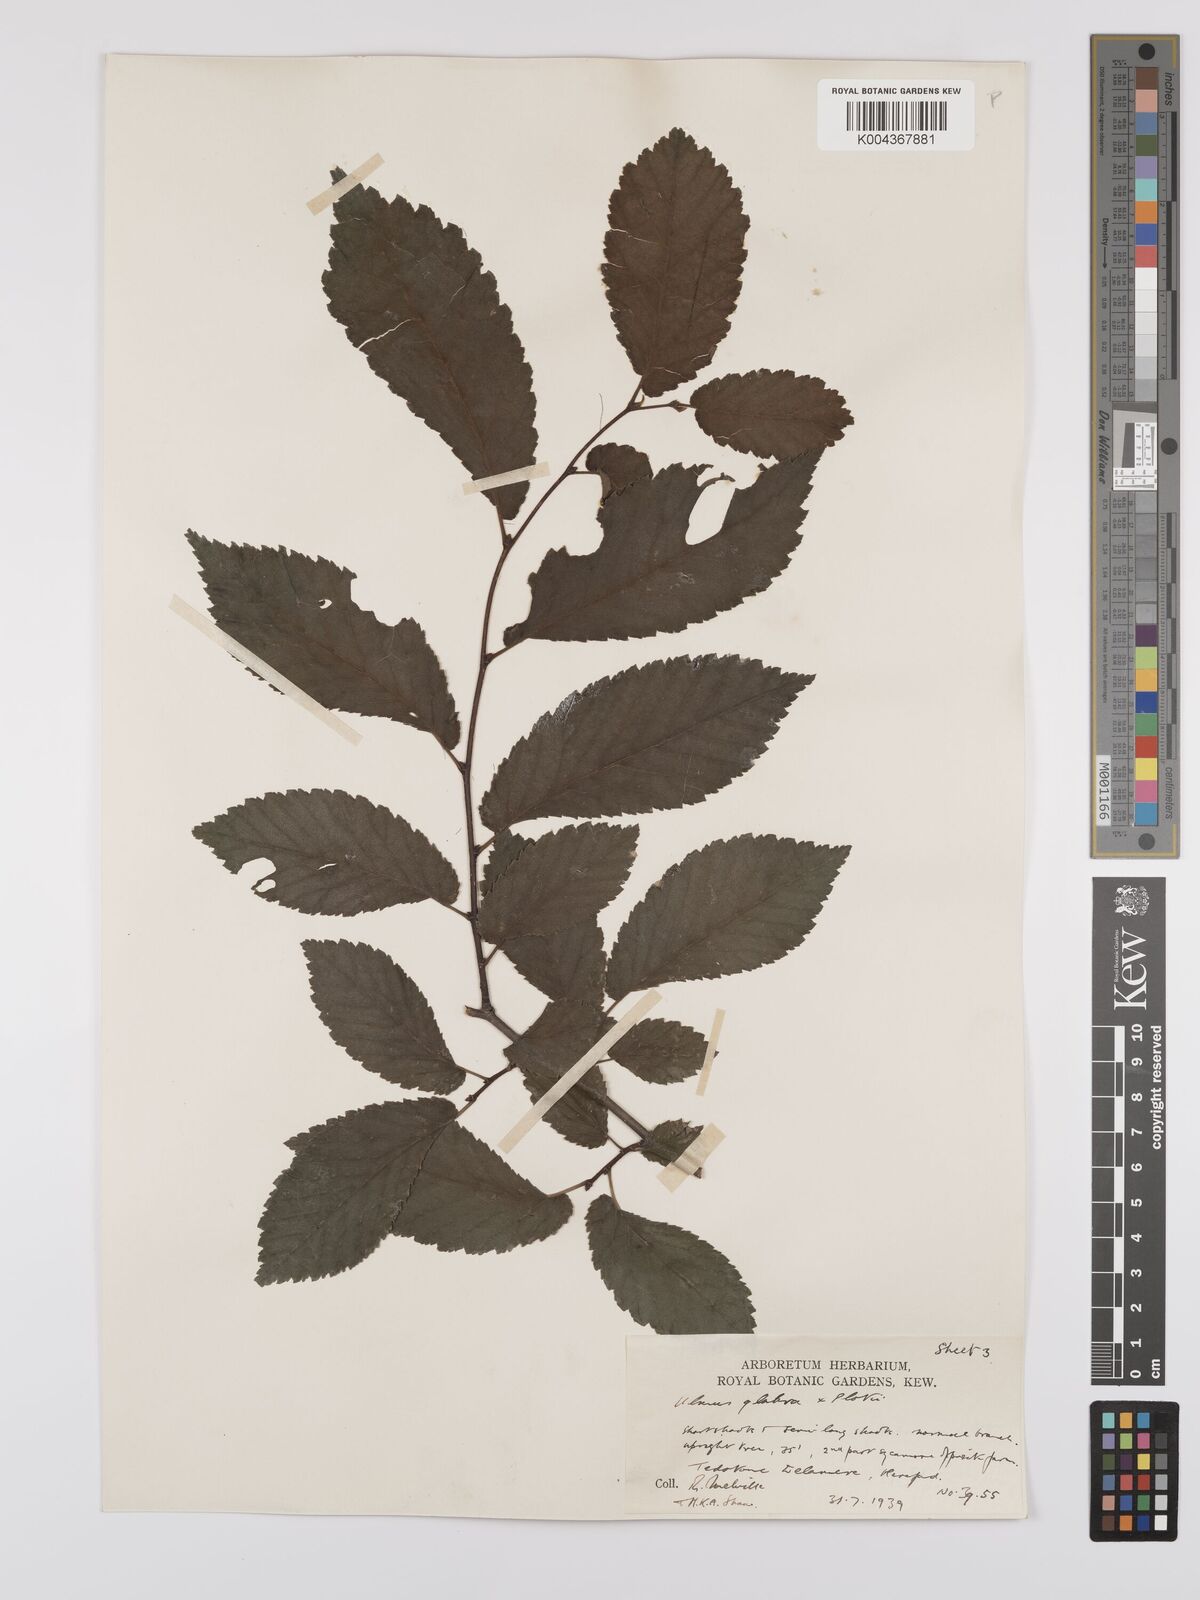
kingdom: Plantae
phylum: Tracheophyta
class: Magnoliopsida
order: Rosales
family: Ulmaceae
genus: Ulmus
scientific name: Ulmus
